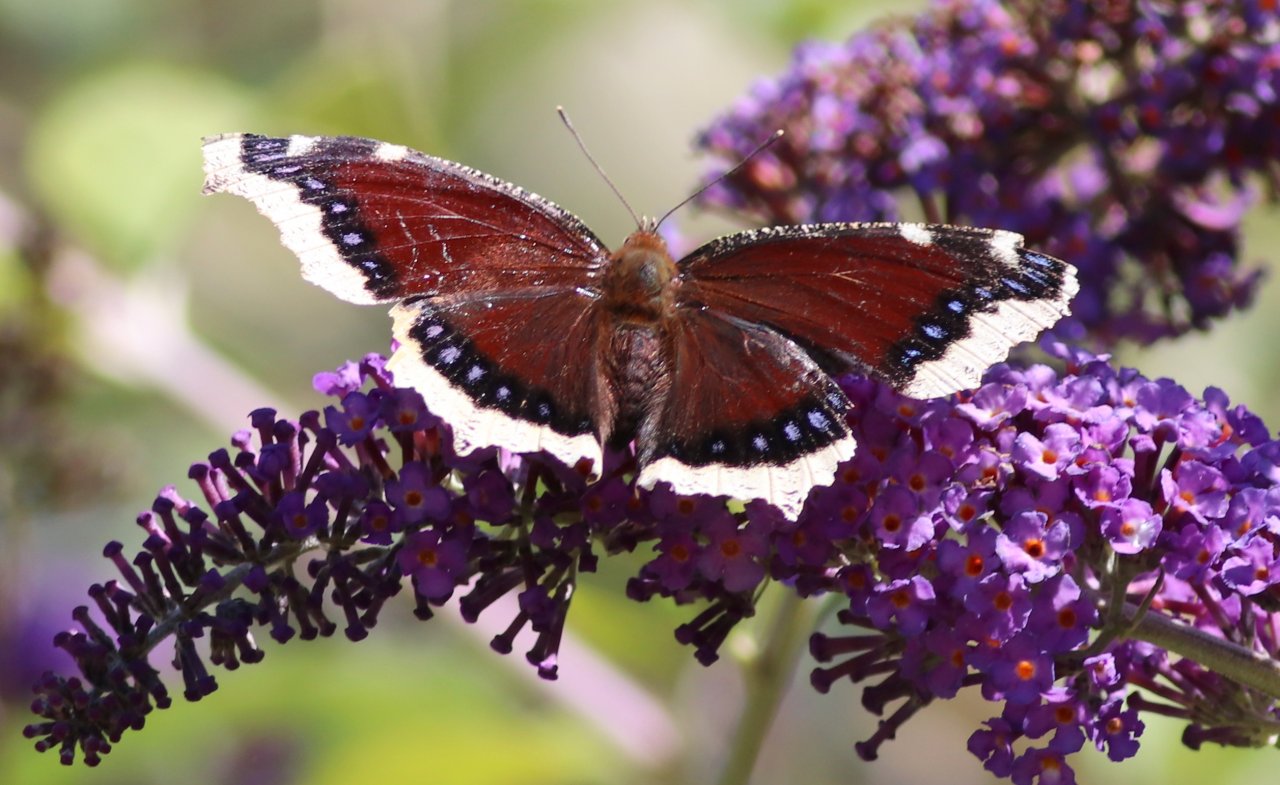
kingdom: Animalia
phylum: Arthropoda
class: Insecta
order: Lepidoptera
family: Nymphalidae
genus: Nymphalis
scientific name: Nymphalis antiopa
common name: Mourning Cloak
